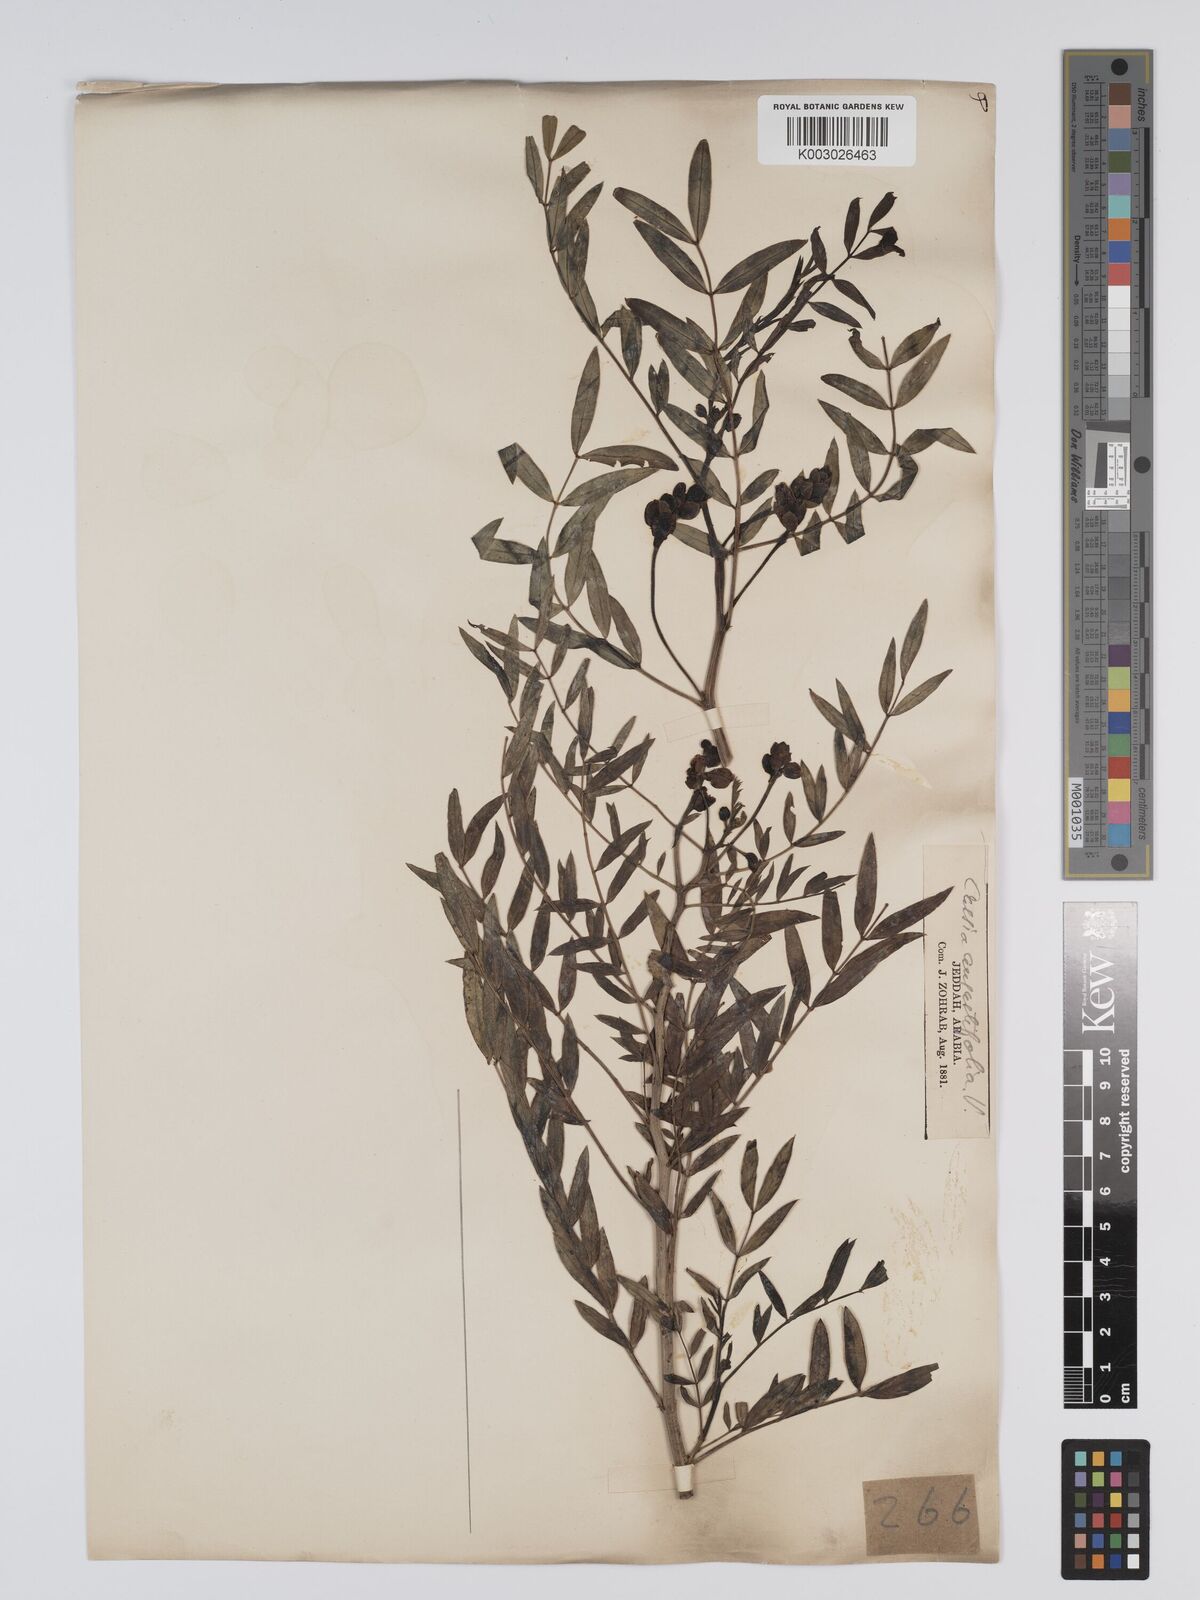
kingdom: Plantae
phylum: Tracheophyta
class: Magnoliopsida
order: Fabales
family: Fabaceae
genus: Senna
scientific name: Senna alexandrina
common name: True senna
